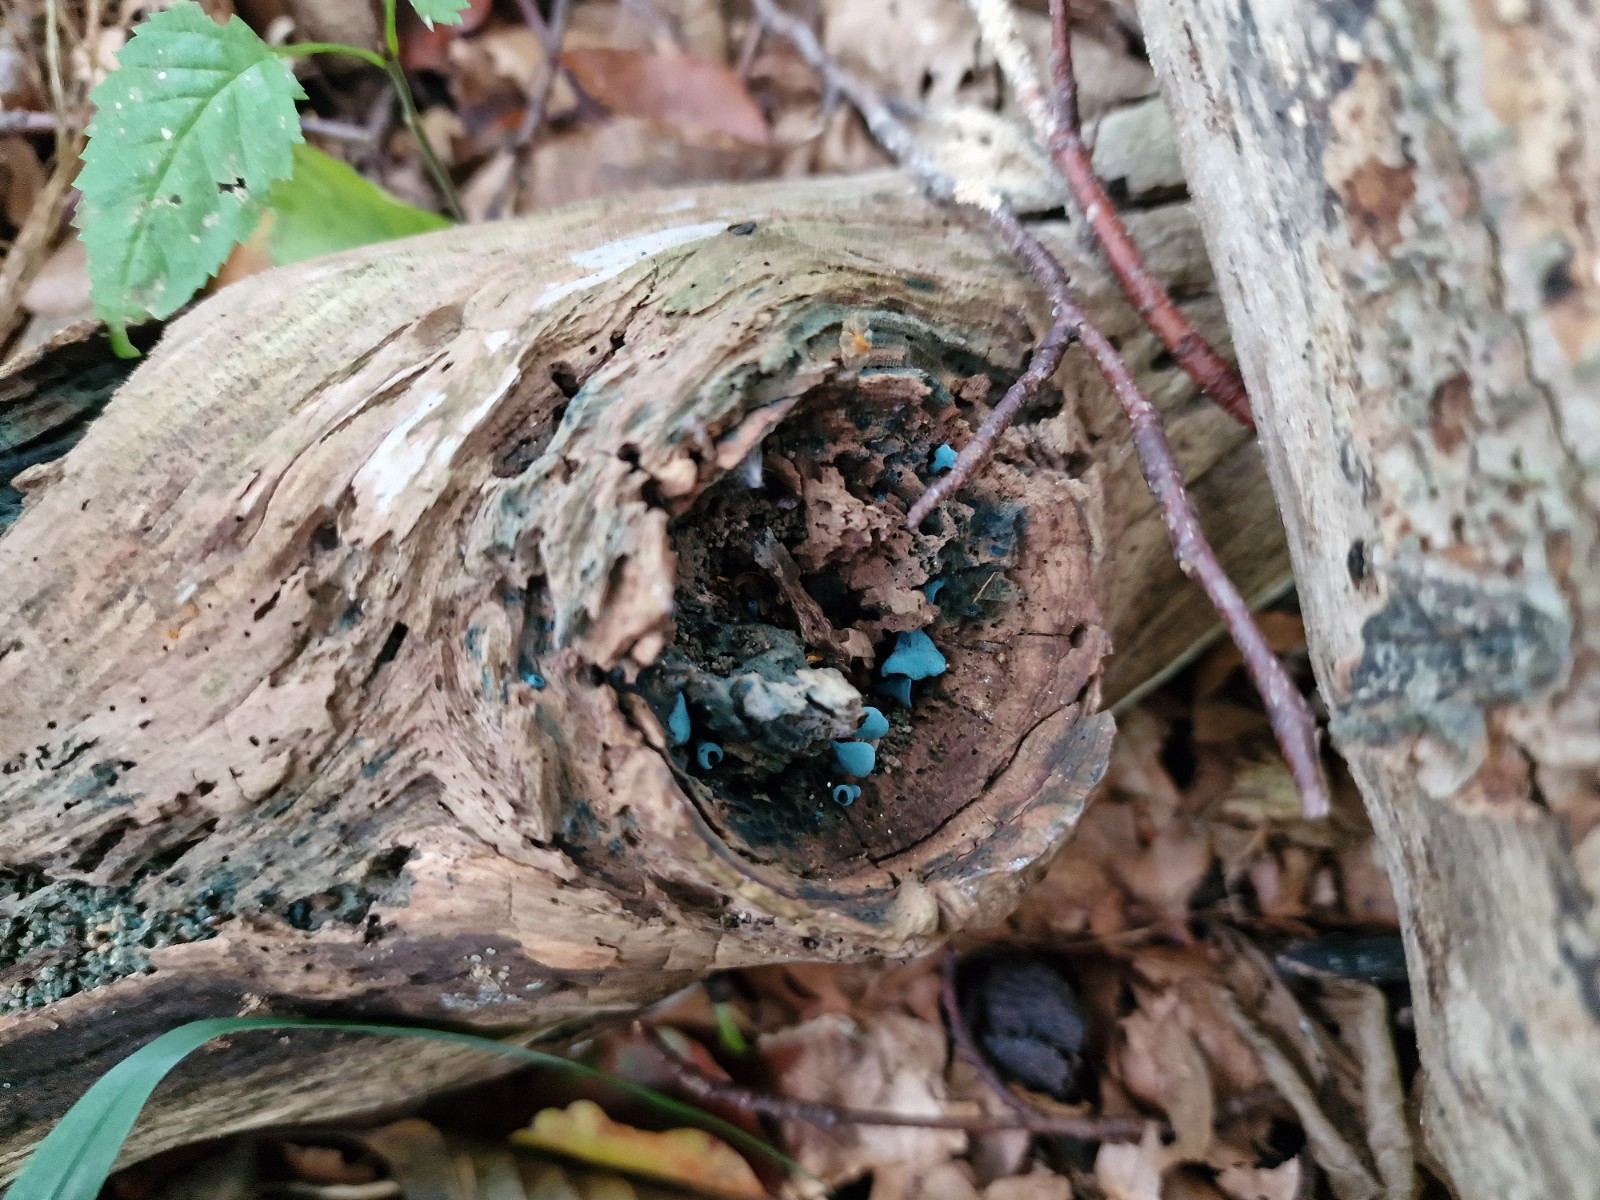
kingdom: Fungi
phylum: Ascomycota
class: Leotiomycetes
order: Helotiales
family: Chlorociboriaceae
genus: Chlorociboria
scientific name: Chlorociboria aeruginascens
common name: almindelig grønskive
